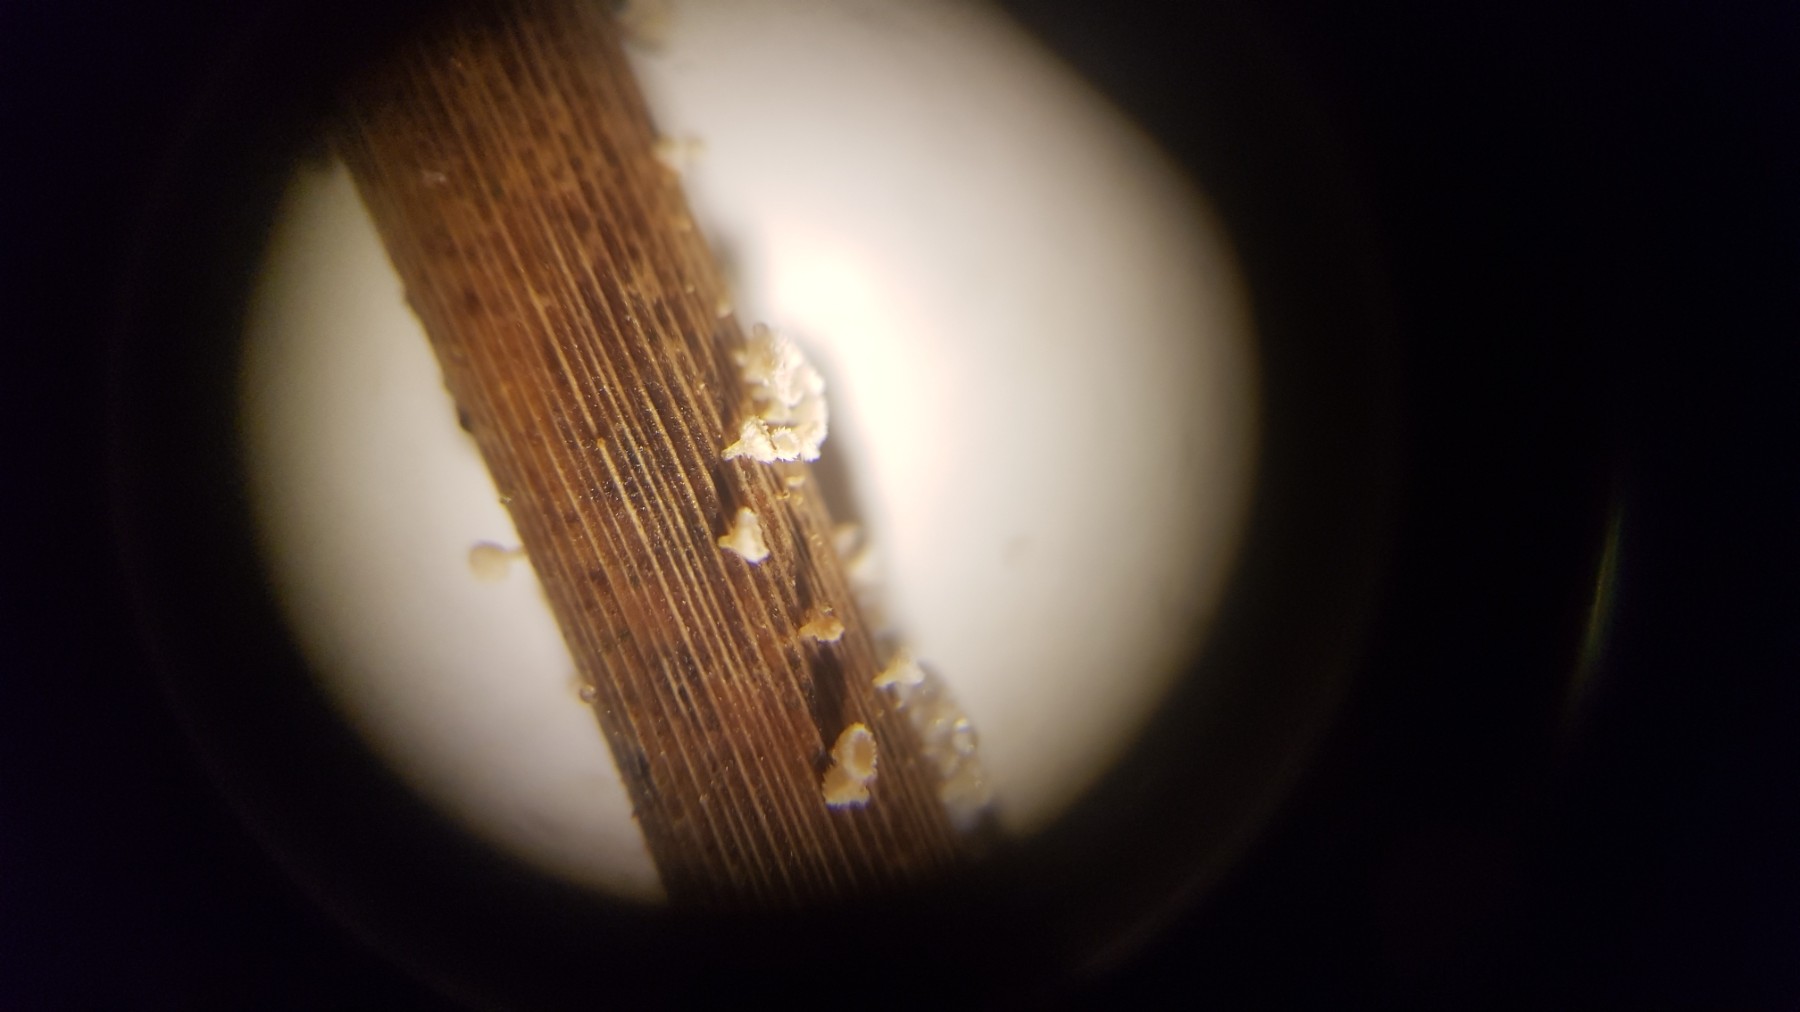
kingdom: Fungi
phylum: Ascomycota
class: Leotiomycetes
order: Helotiales
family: Lachnaceae
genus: Lachnum
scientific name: Lachnum
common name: frynseskive
